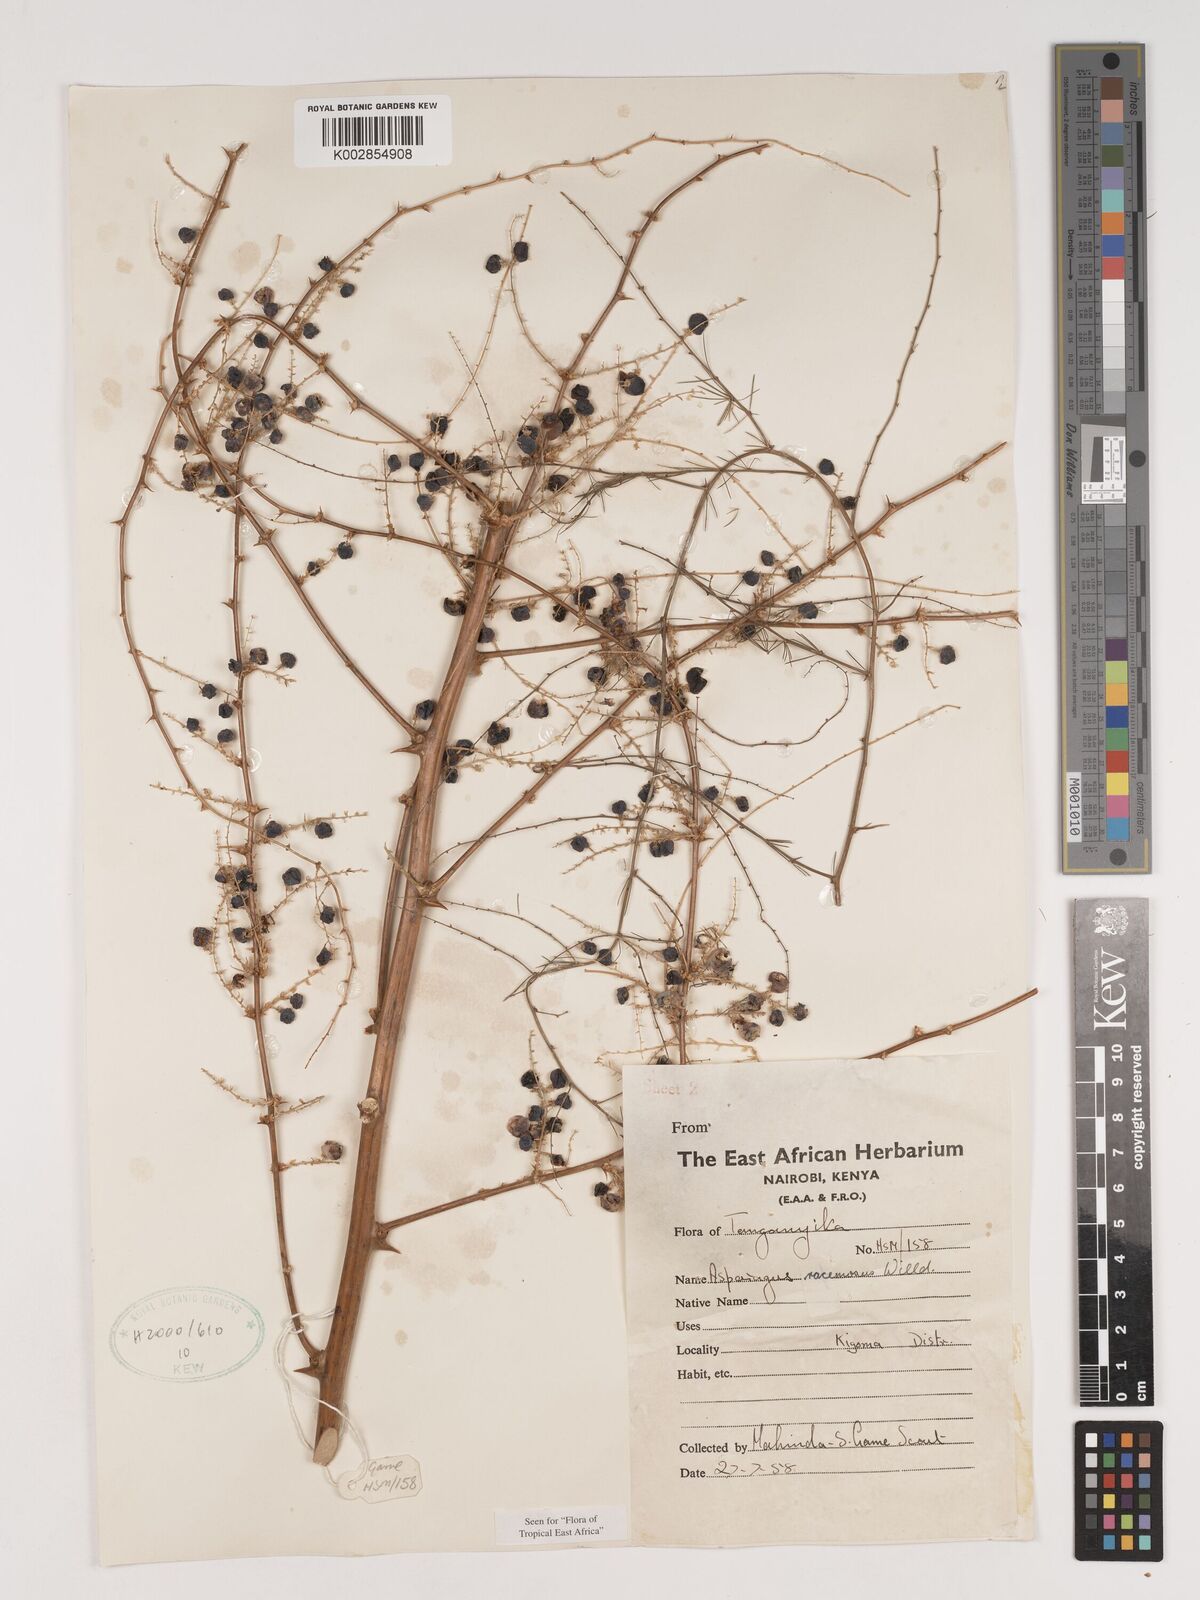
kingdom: Plantae
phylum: Tracheophyta
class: Liliopsida
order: Asparagales
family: Asparagaceae
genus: Asparagus
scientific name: Asparagus racemosus
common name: Asparagus-fern
